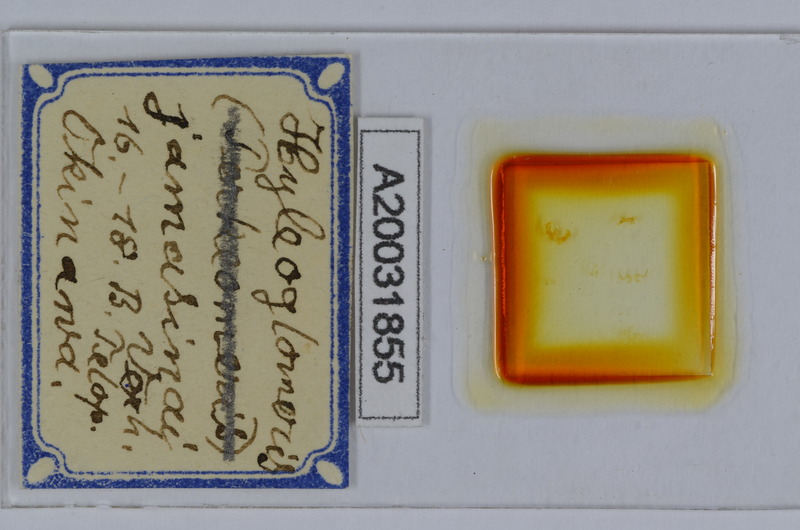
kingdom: Animalia
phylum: Arthropoda
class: Diplopoda
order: Glomerida
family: Glomeridae
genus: Hyleoglomeris
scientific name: Hyleoglomeris
